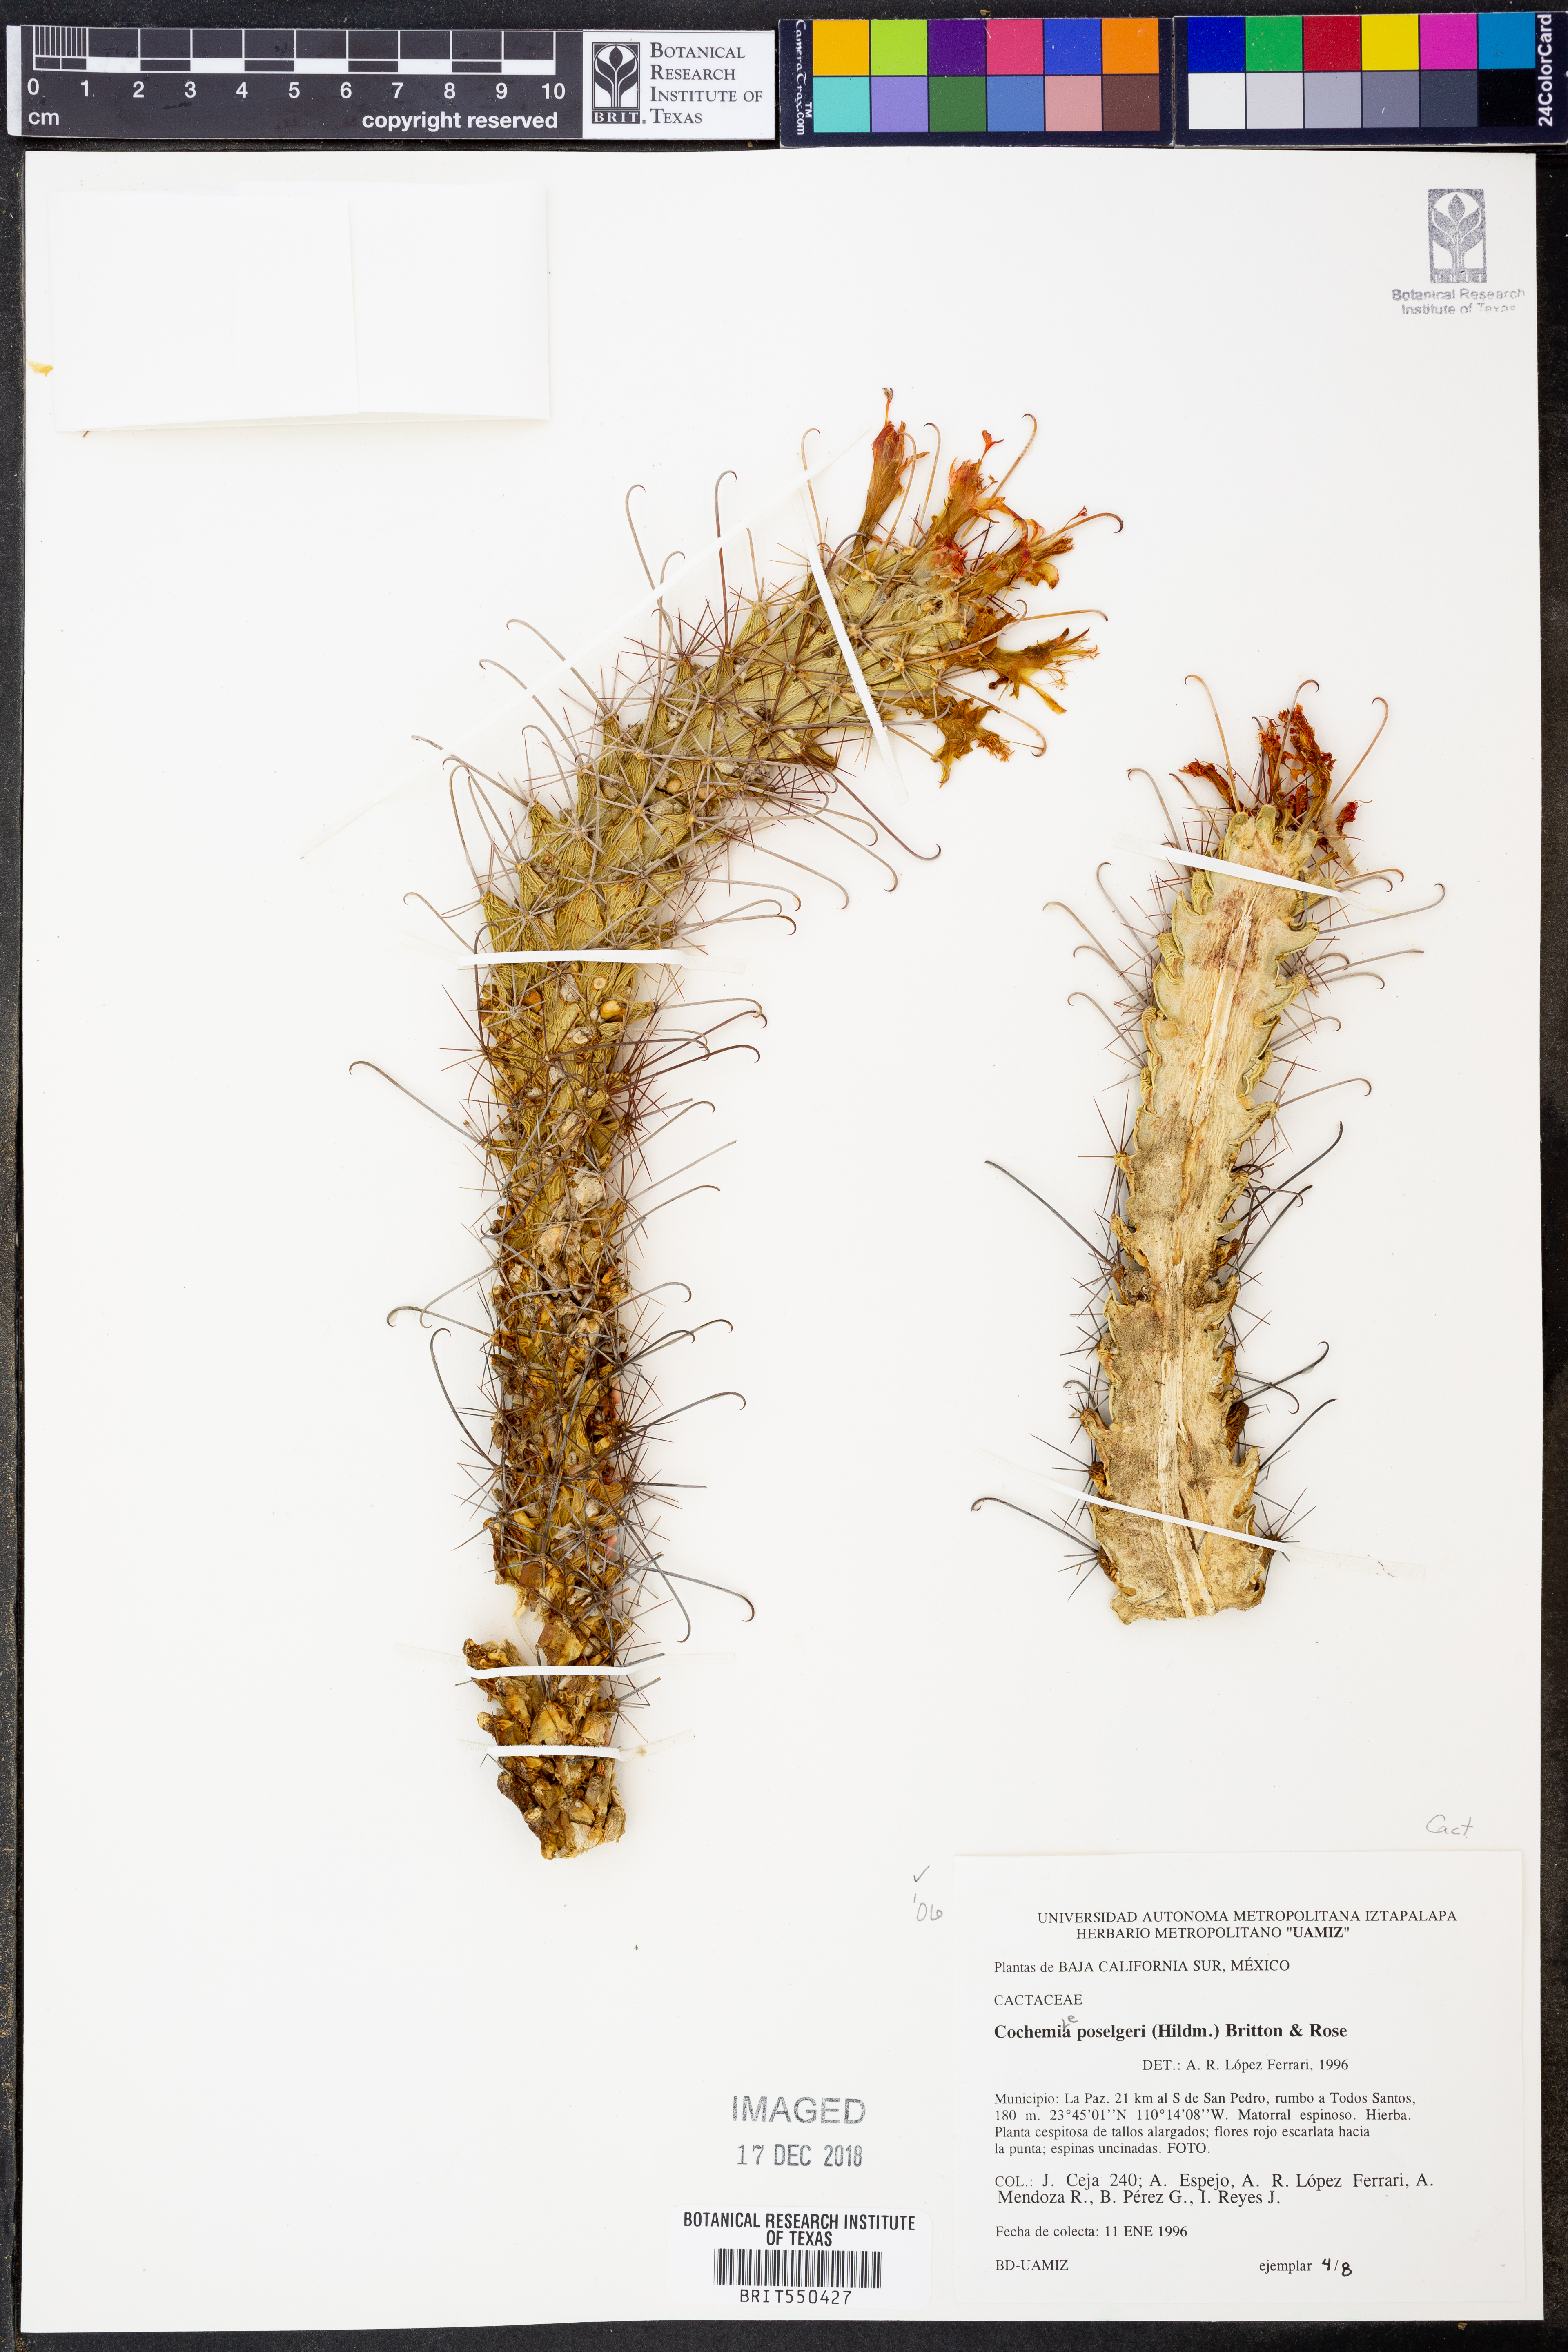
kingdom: Plantae
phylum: Tracheophyta
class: Magnoliopsida
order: Caryophyllales
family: Cactaceae
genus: Cochemiea
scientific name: Cochemiea poselgeri
